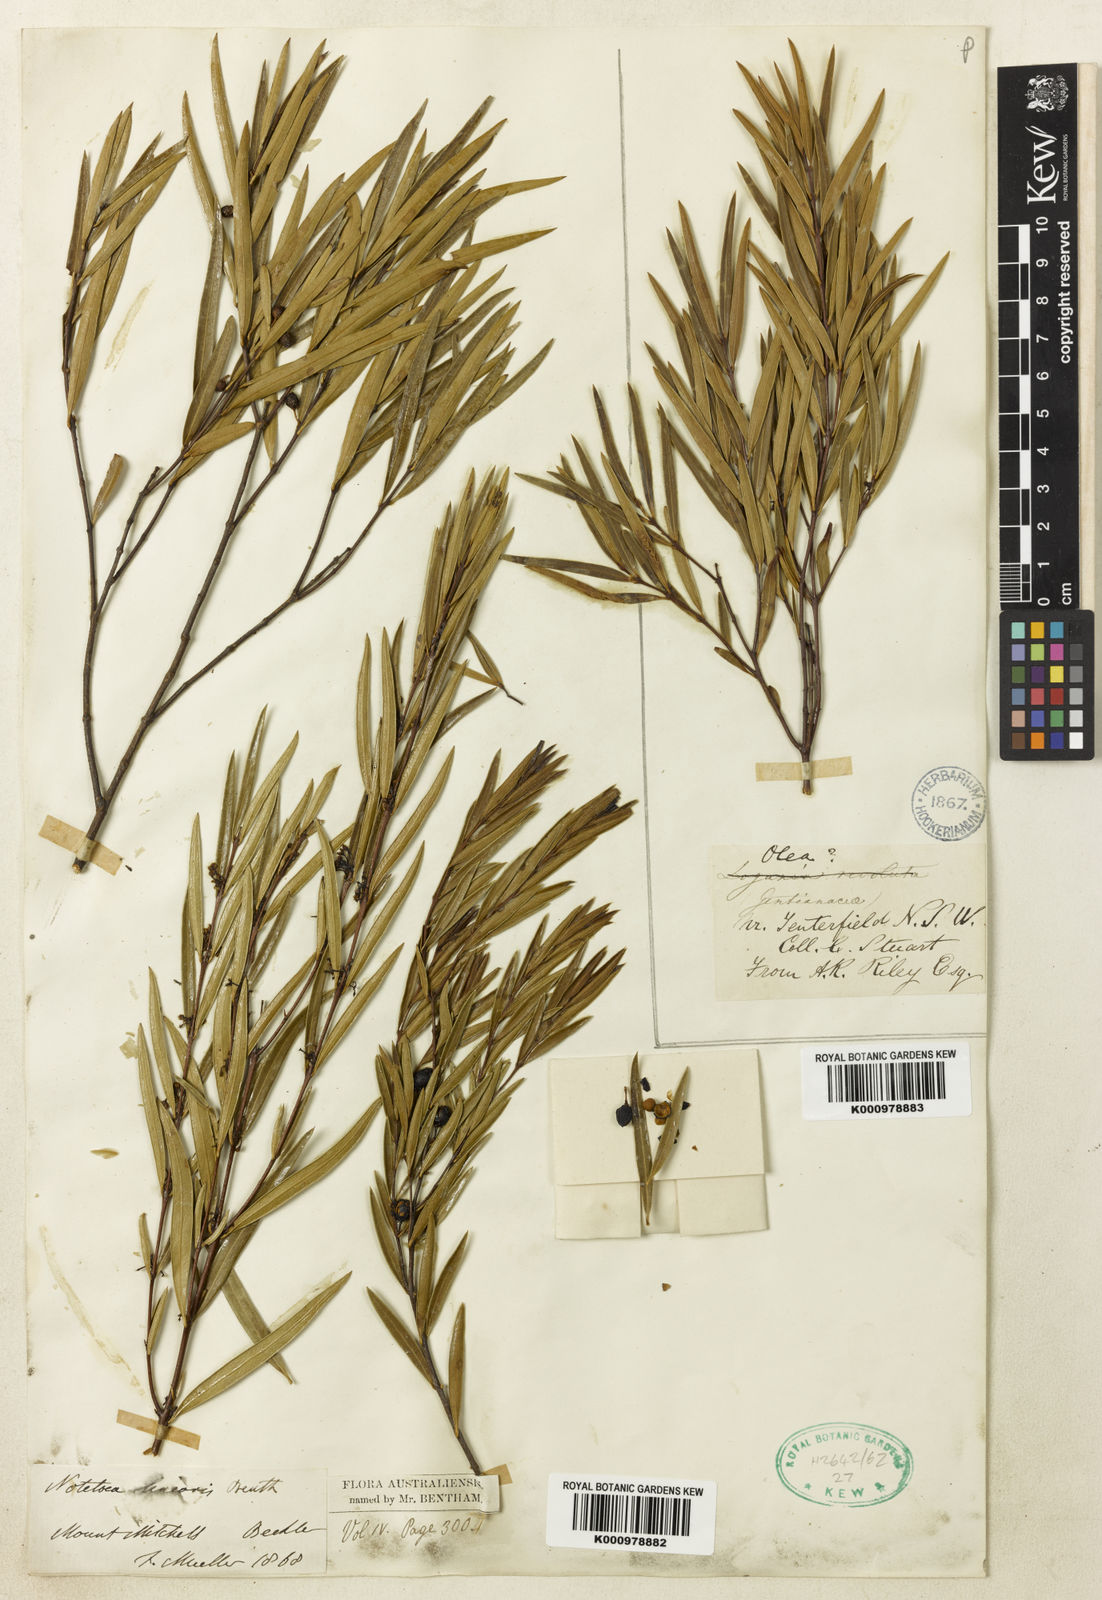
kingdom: Plantae
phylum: Tracheophyta
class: Magnoliopsida
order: Lamiales
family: Oleaceae
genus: Notelaea
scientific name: Notelaea linearis
